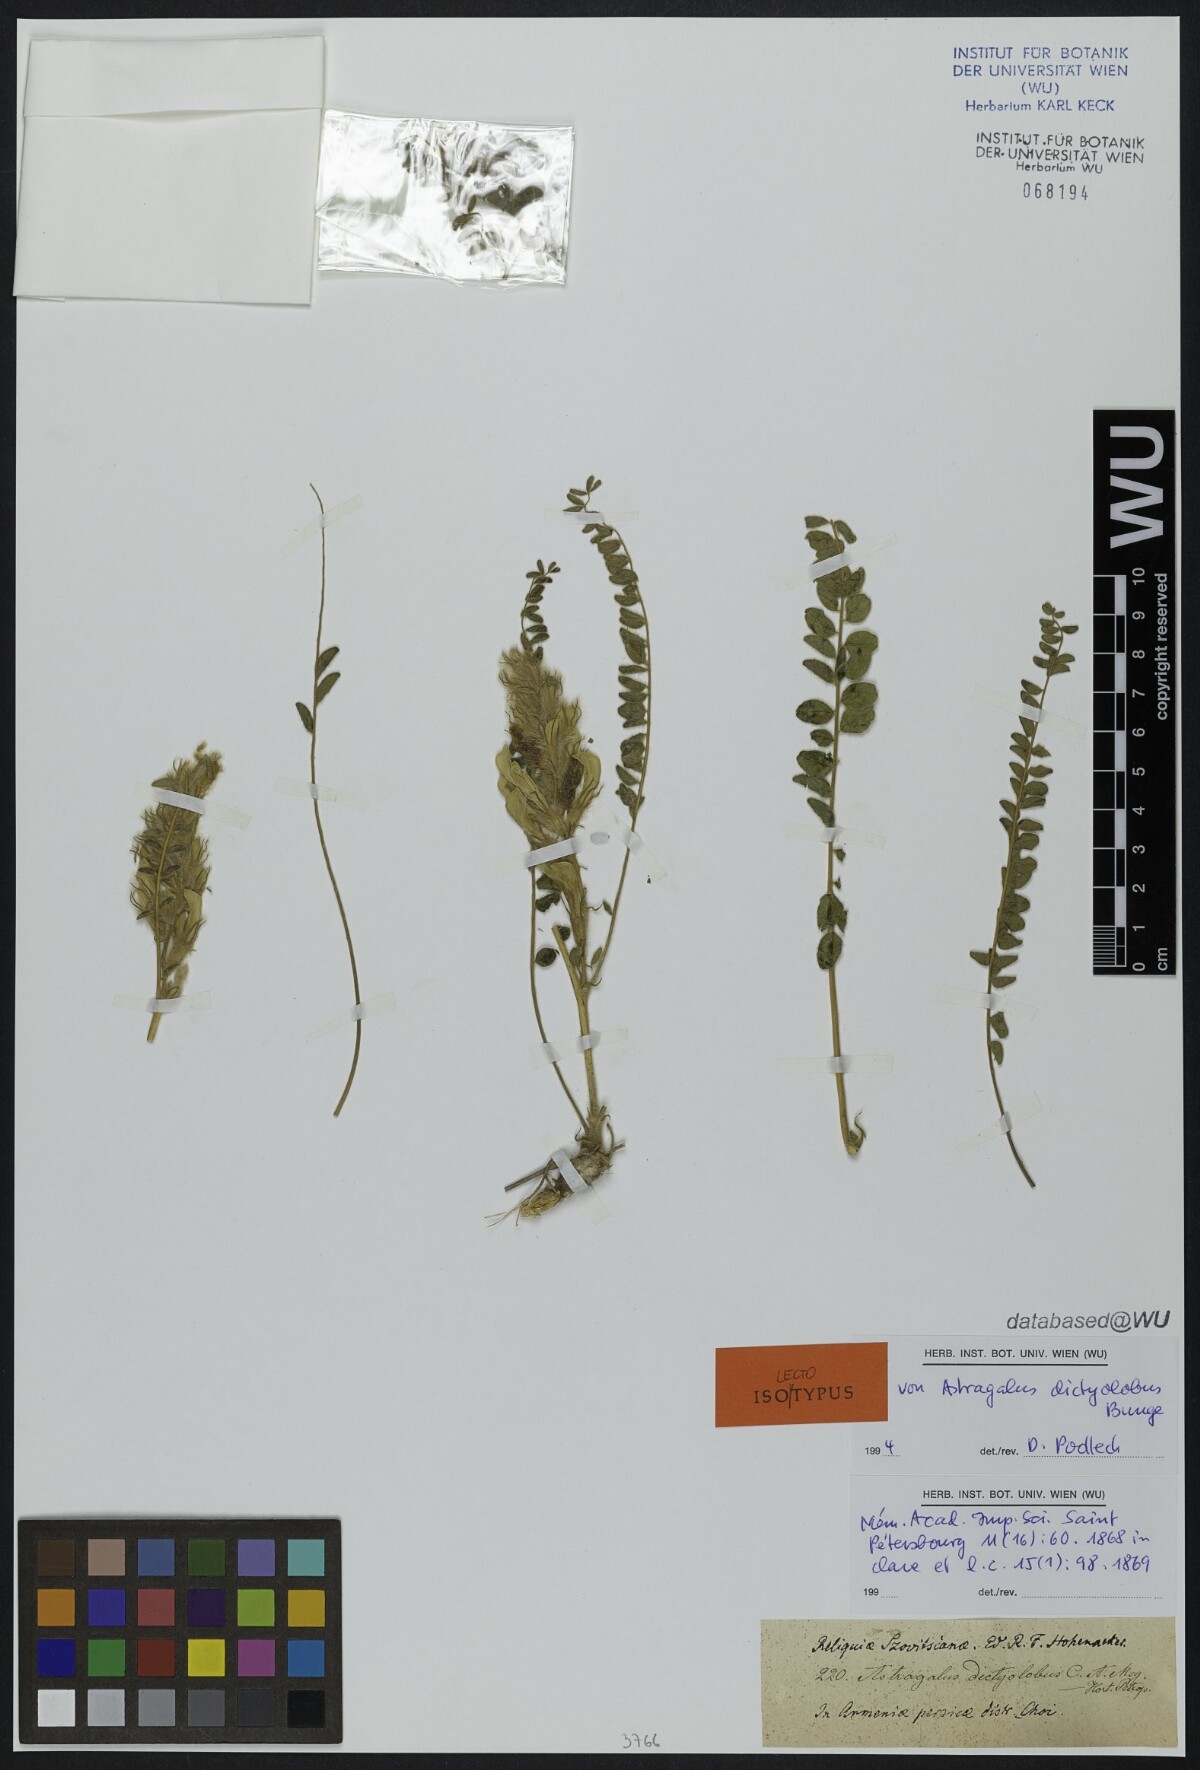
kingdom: Plantae
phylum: Tracheophyta
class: Magnoliopsida
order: Fabales
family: Fabaceae
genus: Astragalus
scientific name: Astragalus dictyolobus
